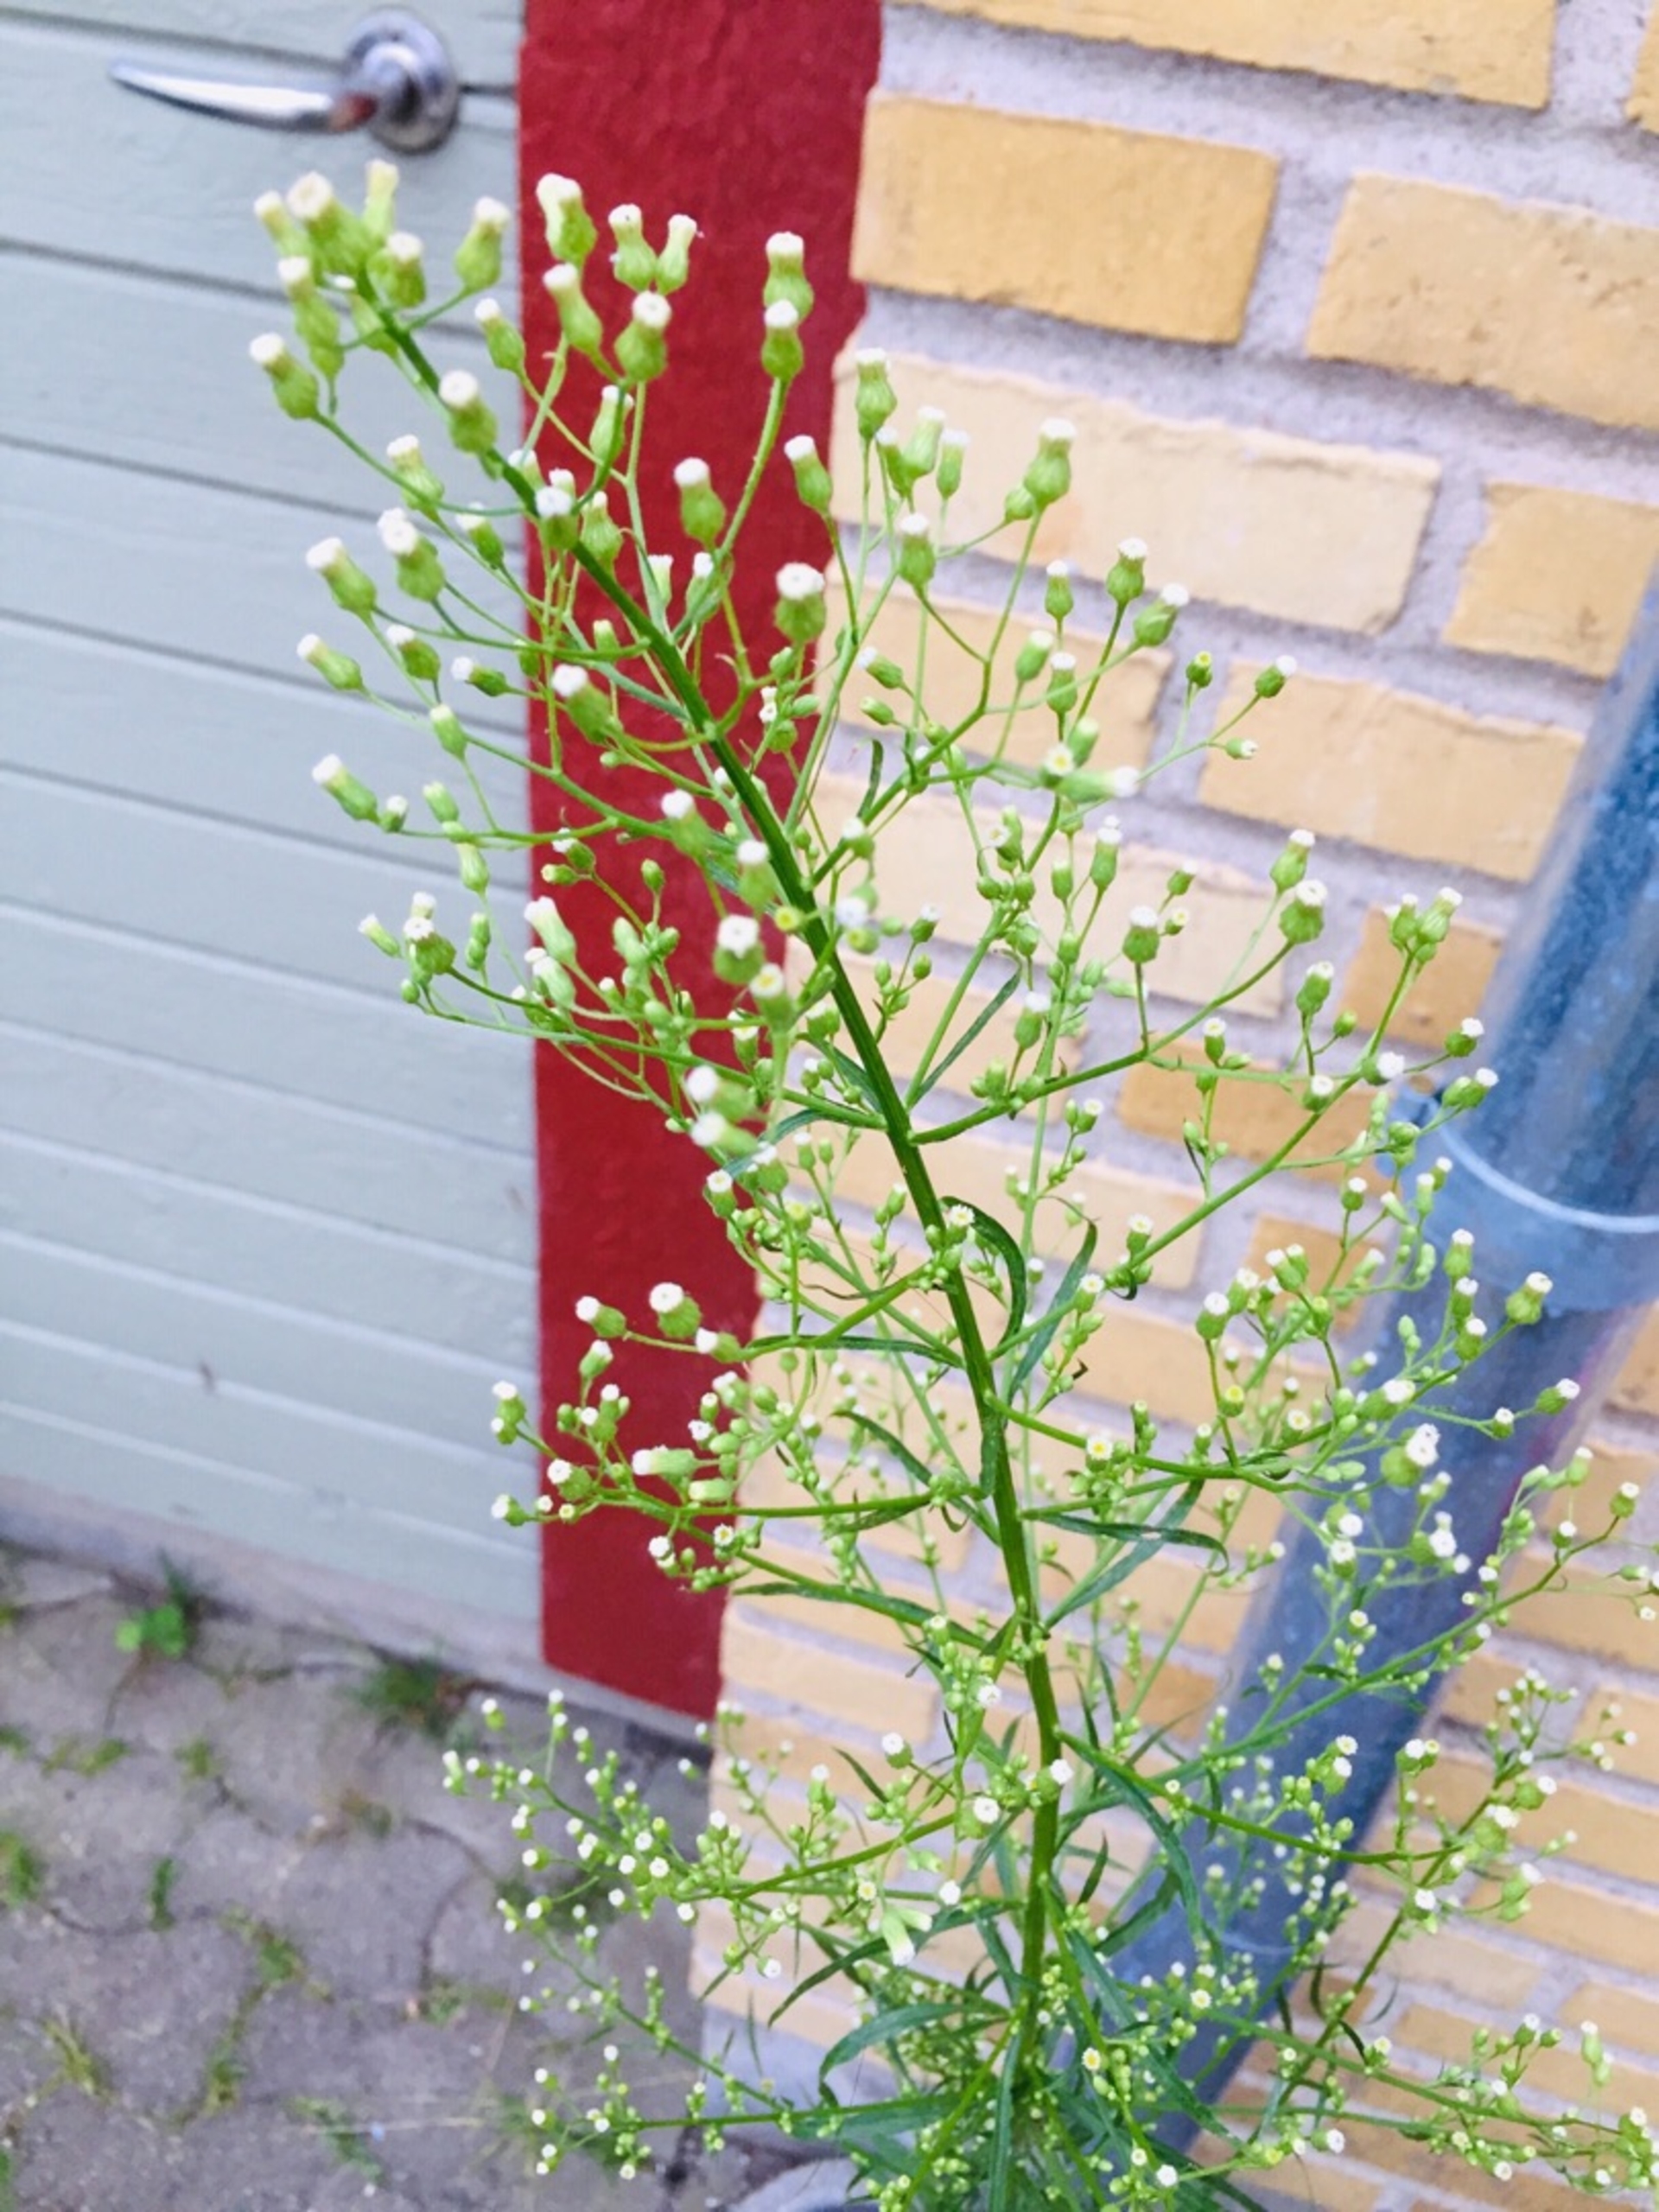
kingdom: Plantae
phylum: Tracheophyta
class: Magnoliopsida
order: Asterales
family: Asteraceae
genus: Erigeron
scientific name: Erigeron canadensis
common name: Kanadisk bakkestjerne
